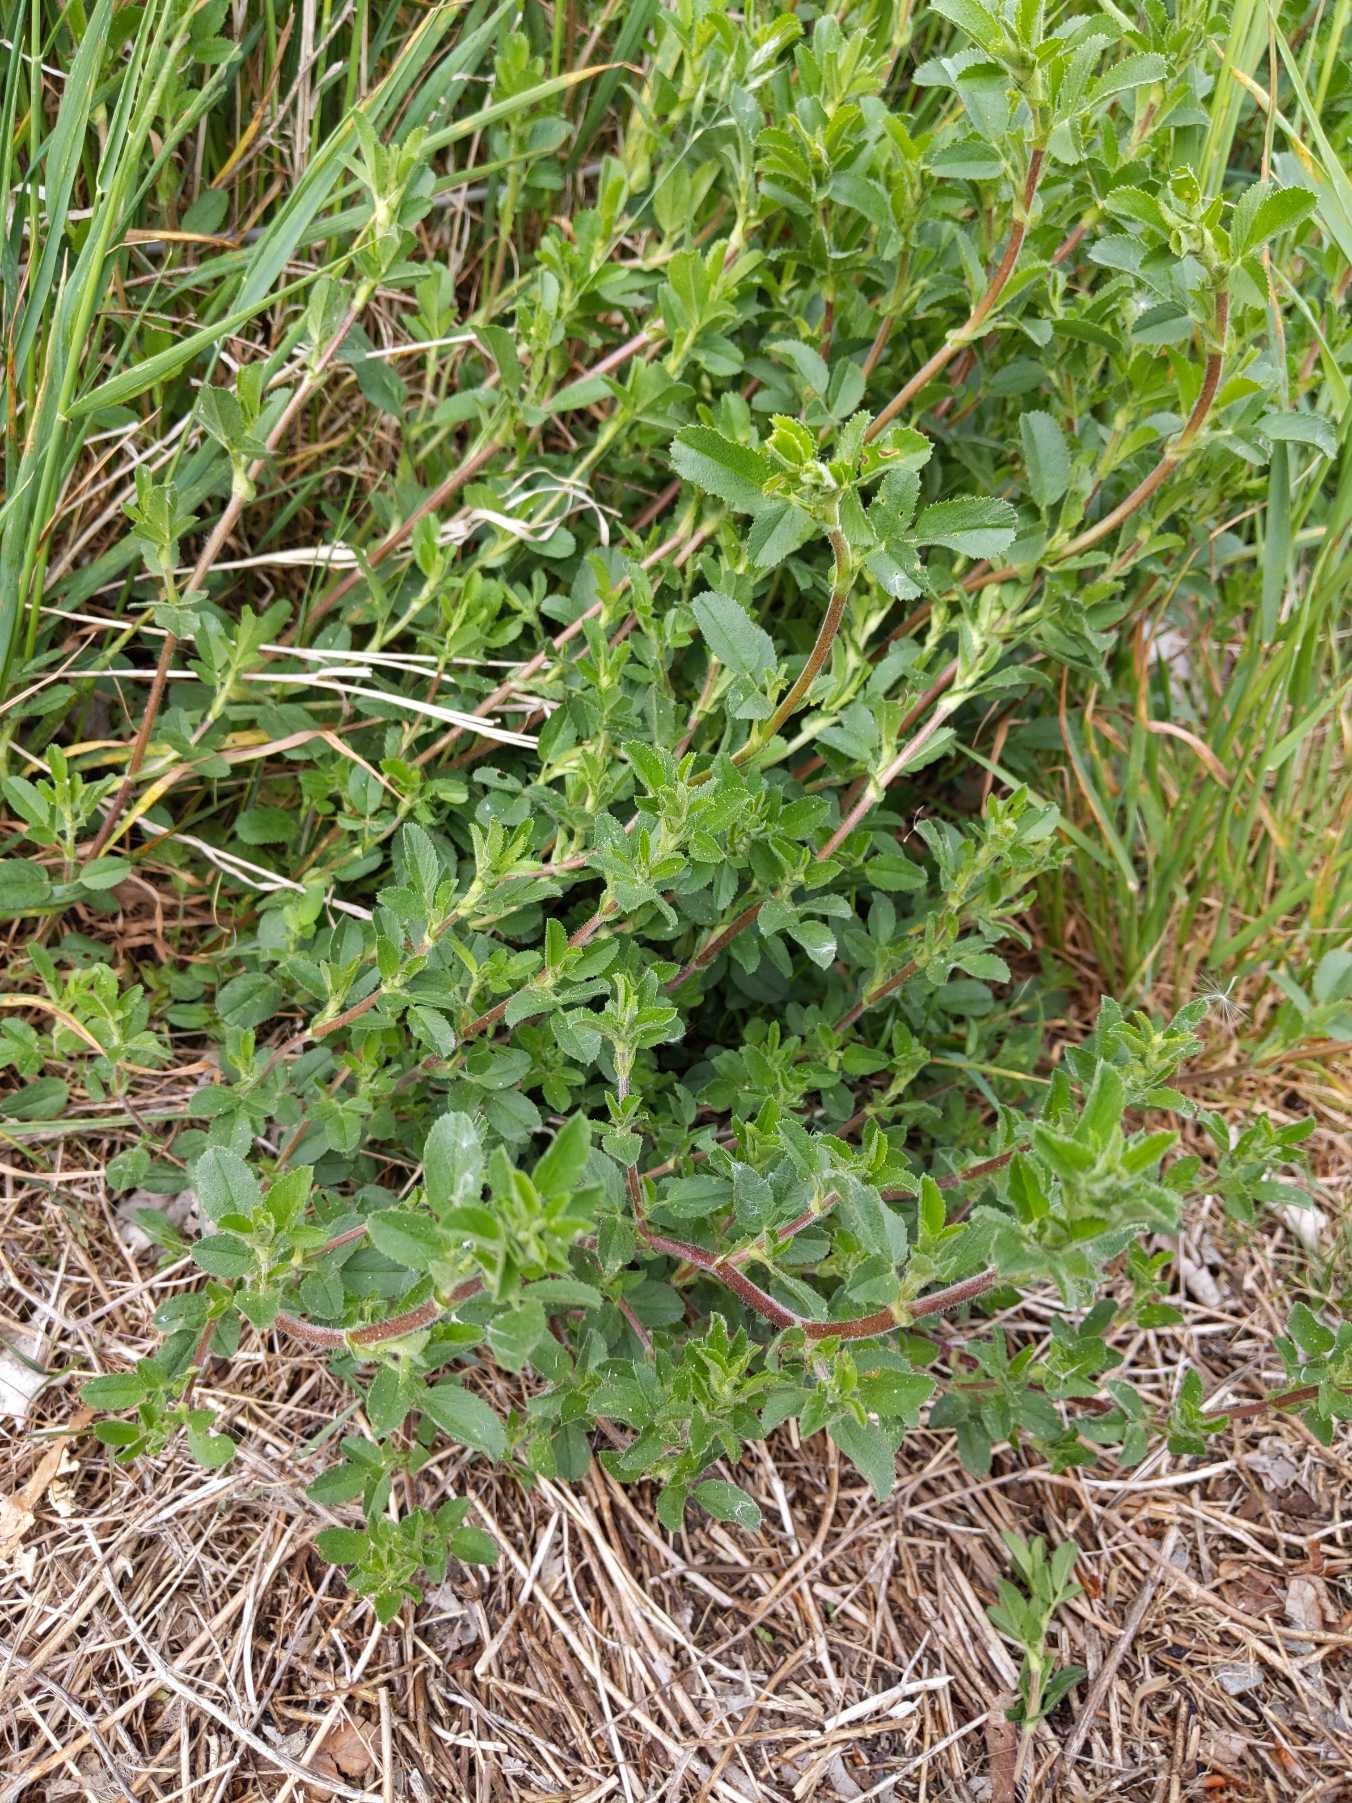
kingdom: Plantae
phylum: Tracheophyta
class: Magnoliopsida
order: Fabales
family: Fabaceae
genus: Ononis
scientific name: Ononis spinosa
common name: Mark-krageklo
